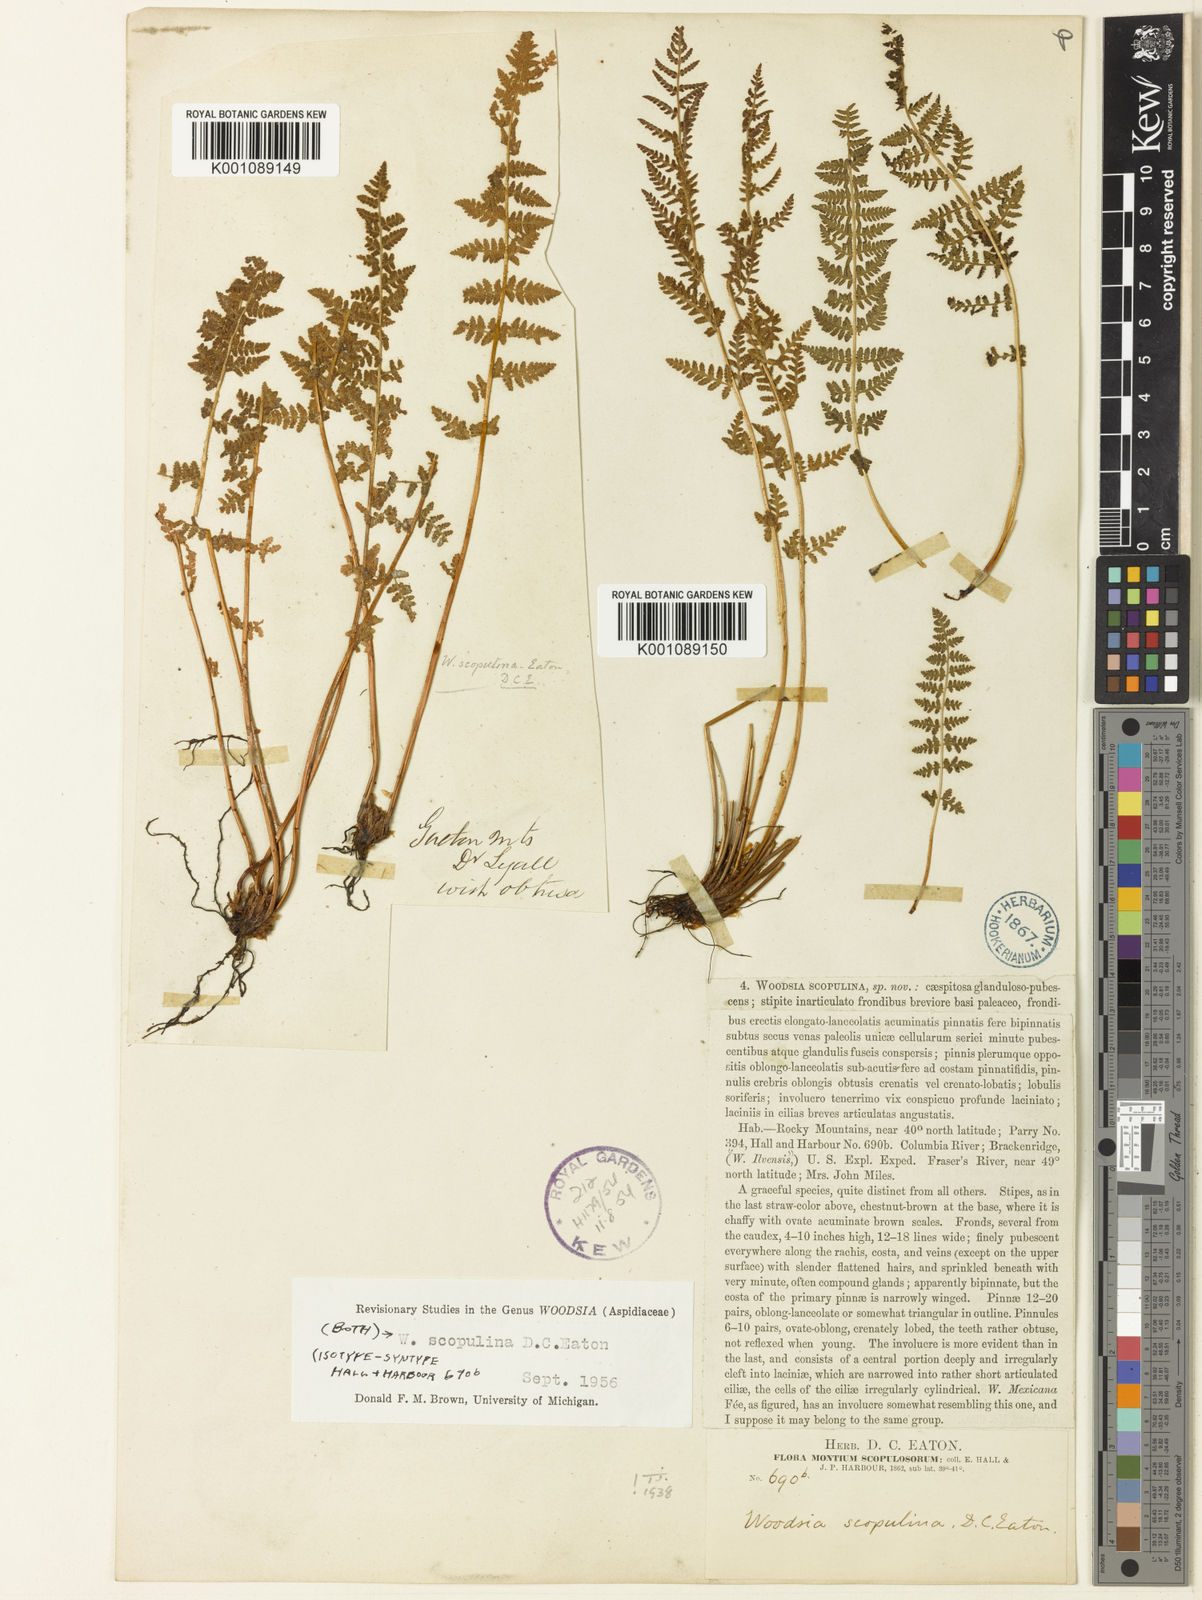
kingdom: Plantae
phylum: Tracheophyta
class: Polypodiopsida
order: Polypodiales
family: Woodsiaceae
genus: Physematium
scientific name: Physematium scopulinum
